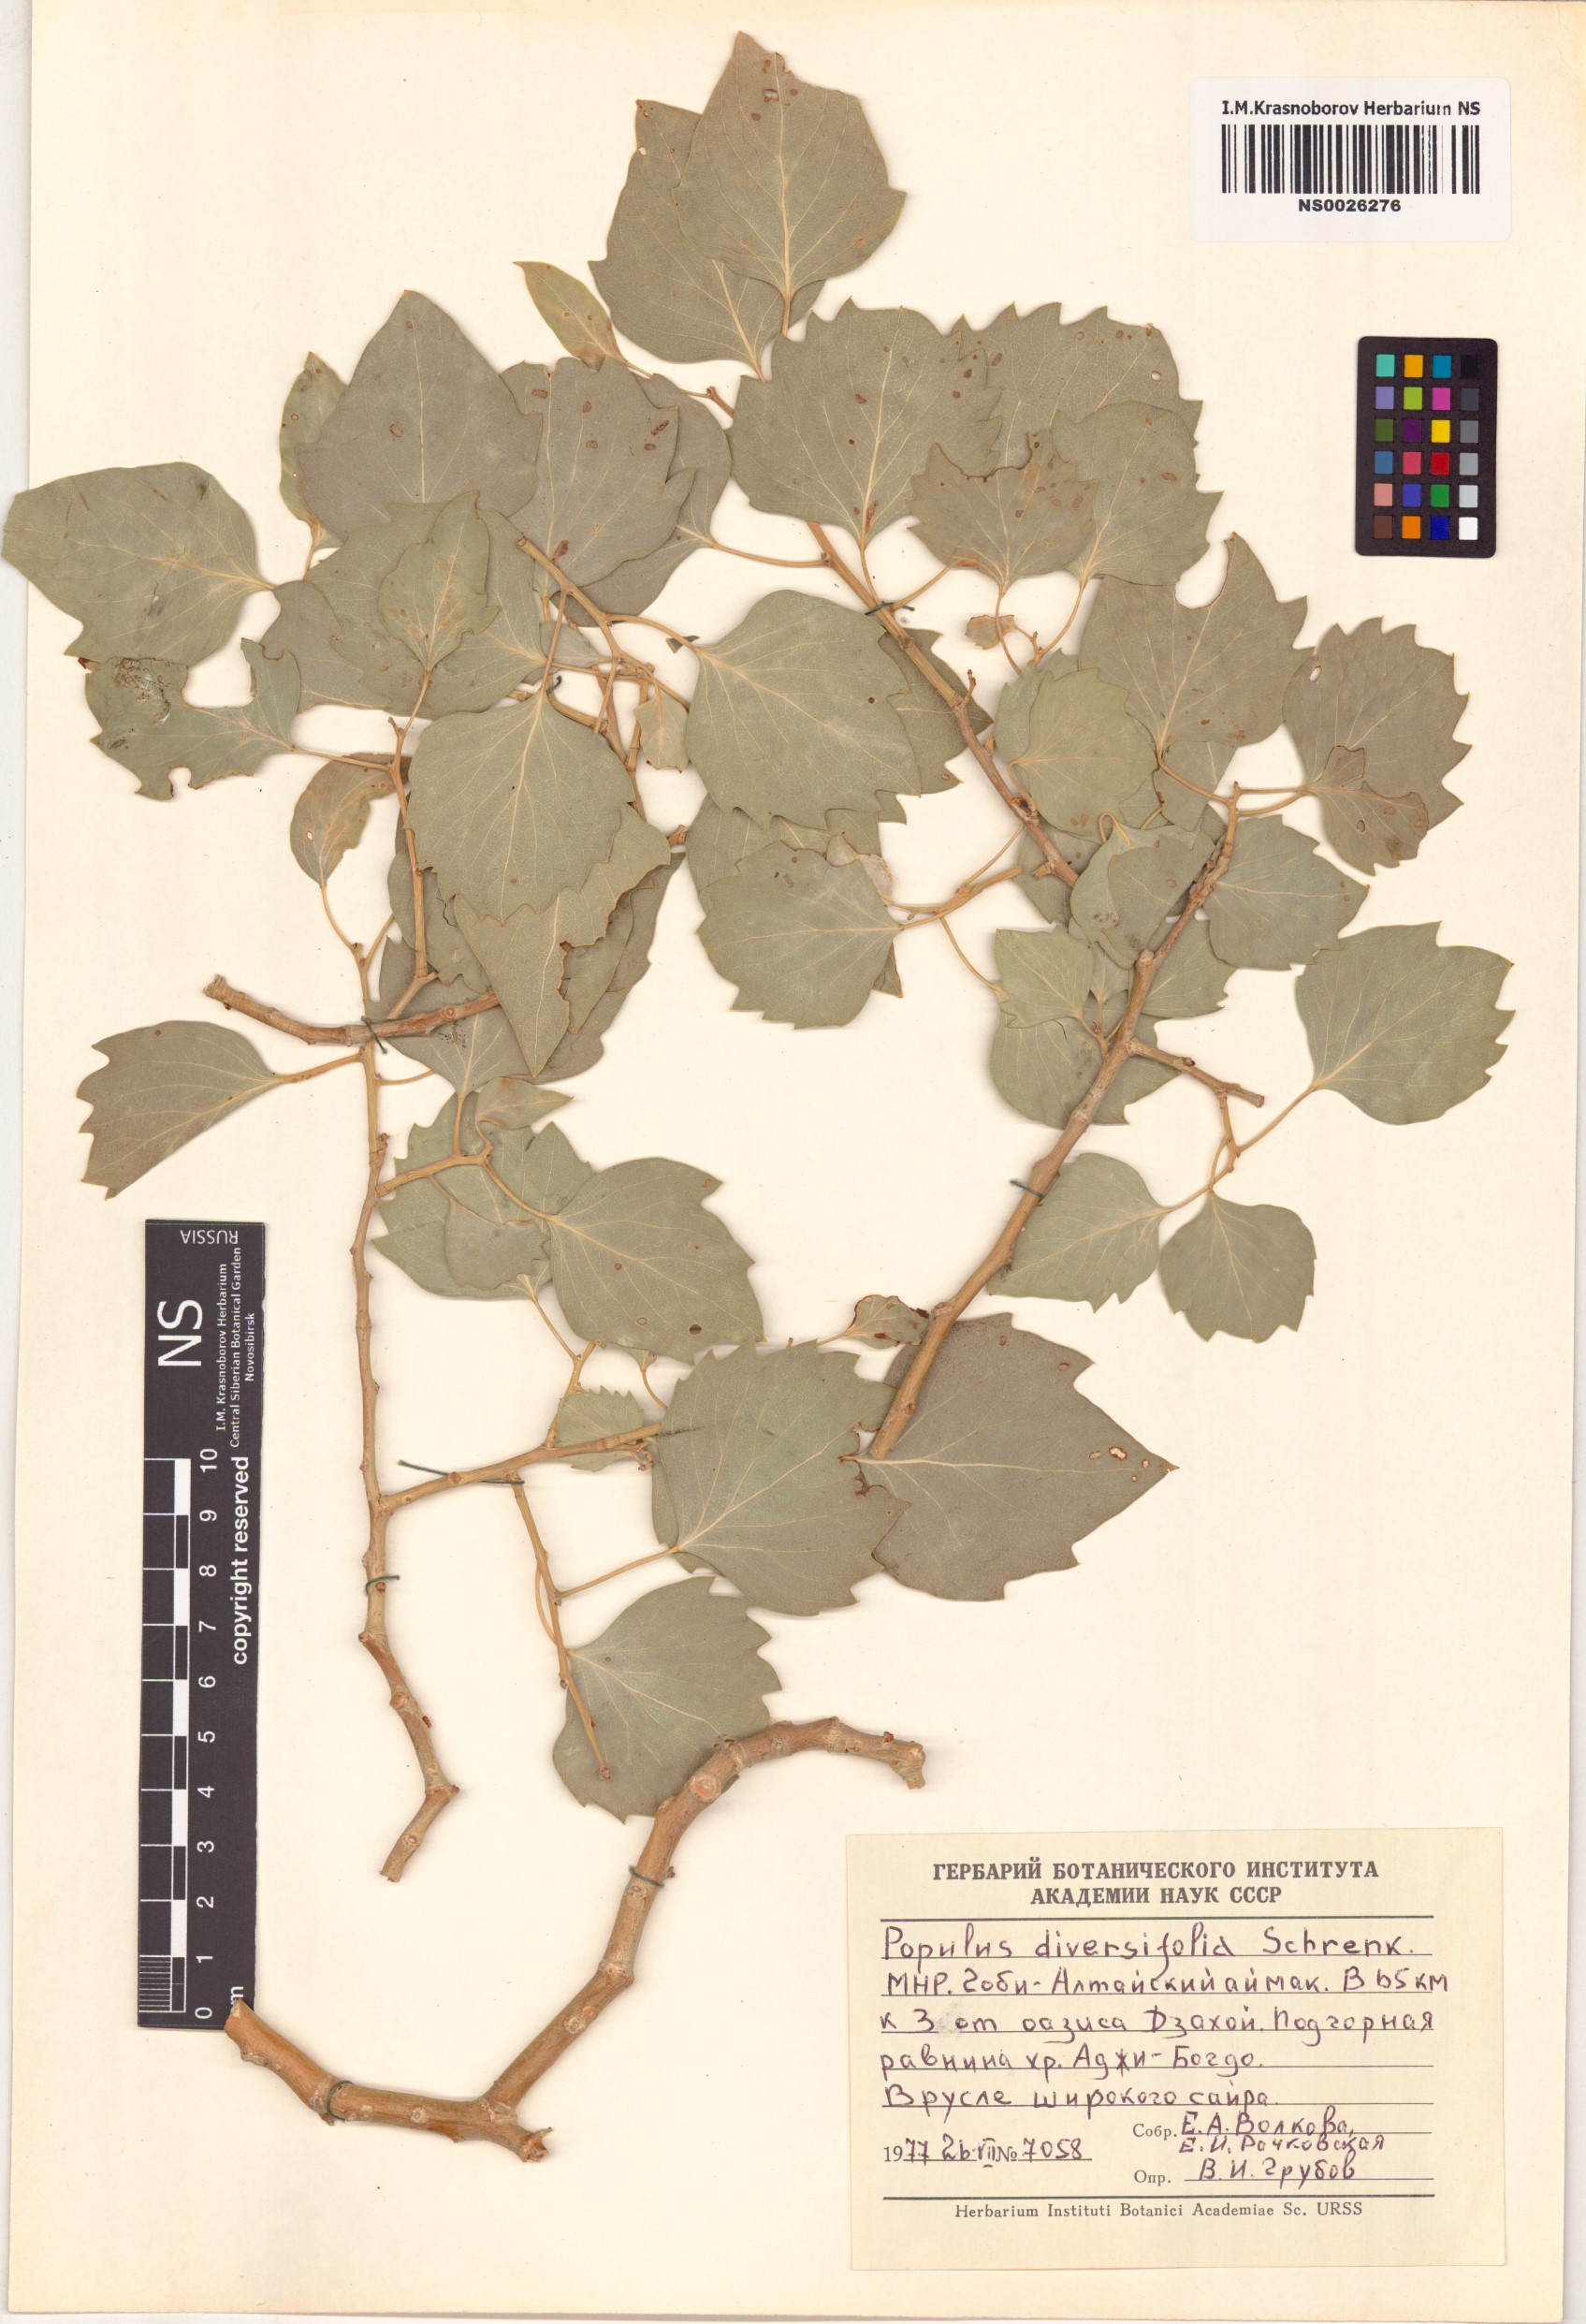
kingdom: Plantae
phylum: Tracheophyta
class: Magnoliopsida
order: Malpighiales
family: Salicaceae
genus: Populus
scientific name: Populus euphratica
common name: Euphrates poplar
